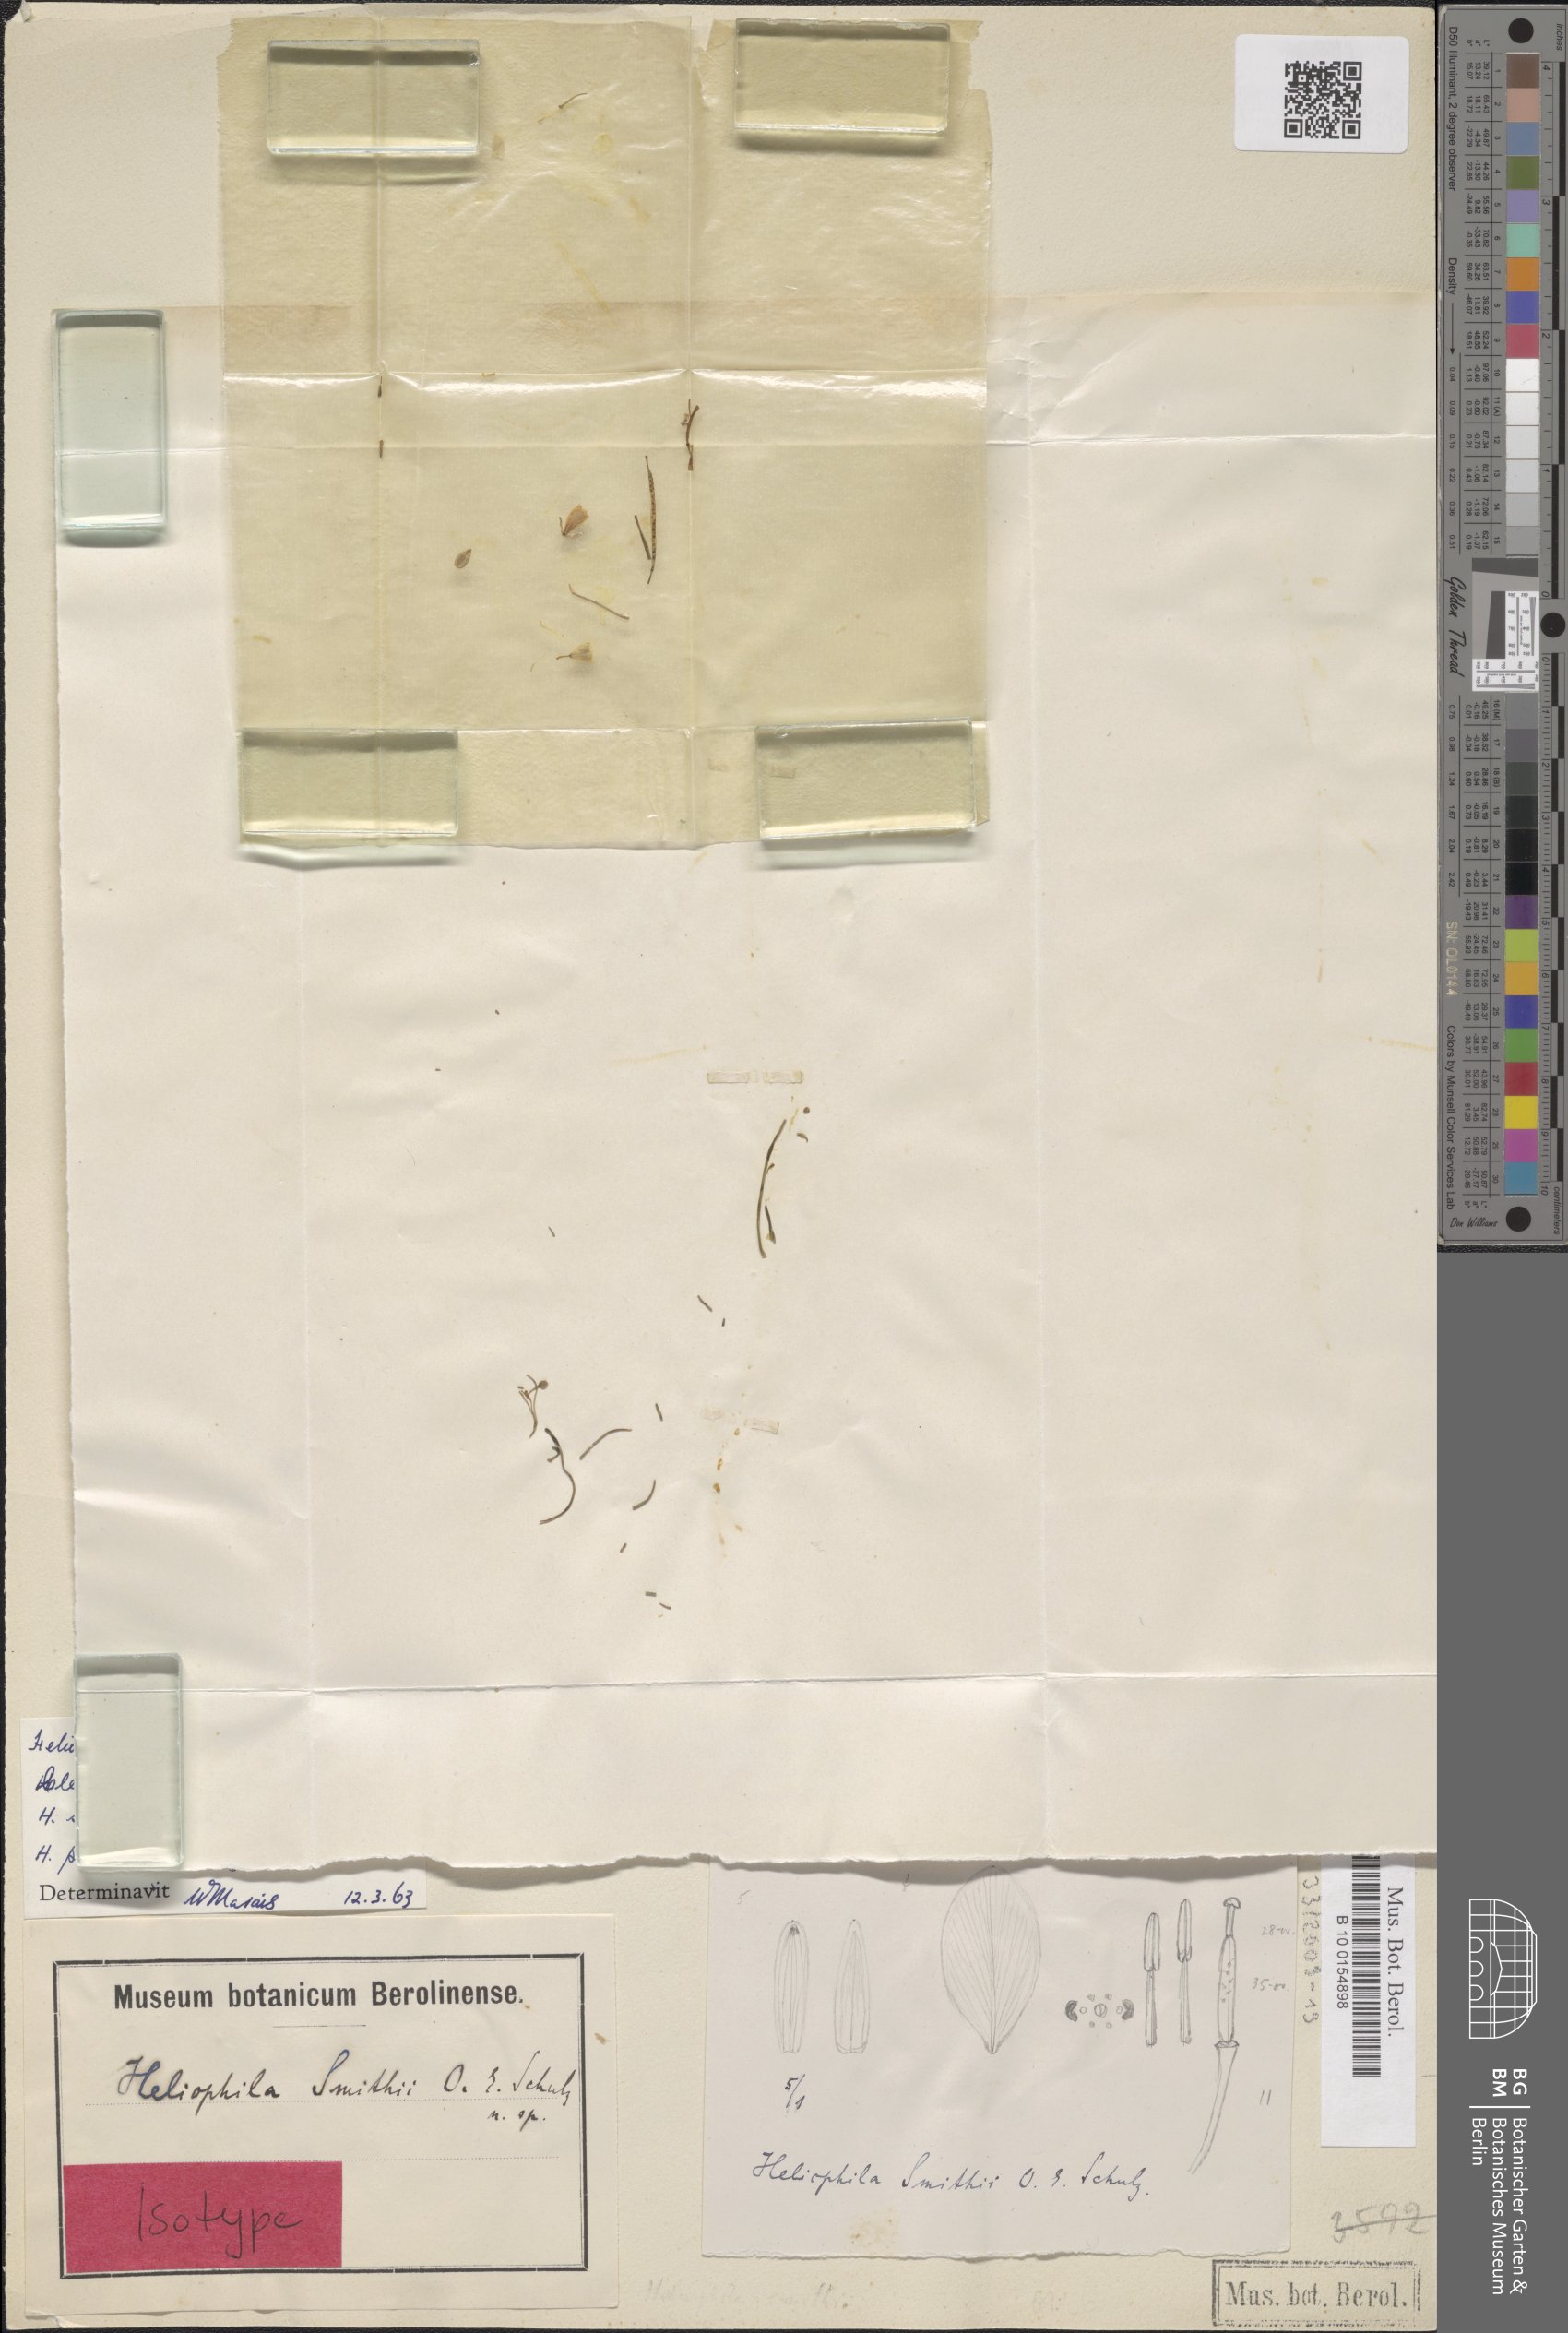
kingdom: Plantae
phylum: Tracheophyta
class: Magnoliopsida
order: Brassicales
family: Brassicaceae
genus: Heliophila
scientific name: Heliophila minima
